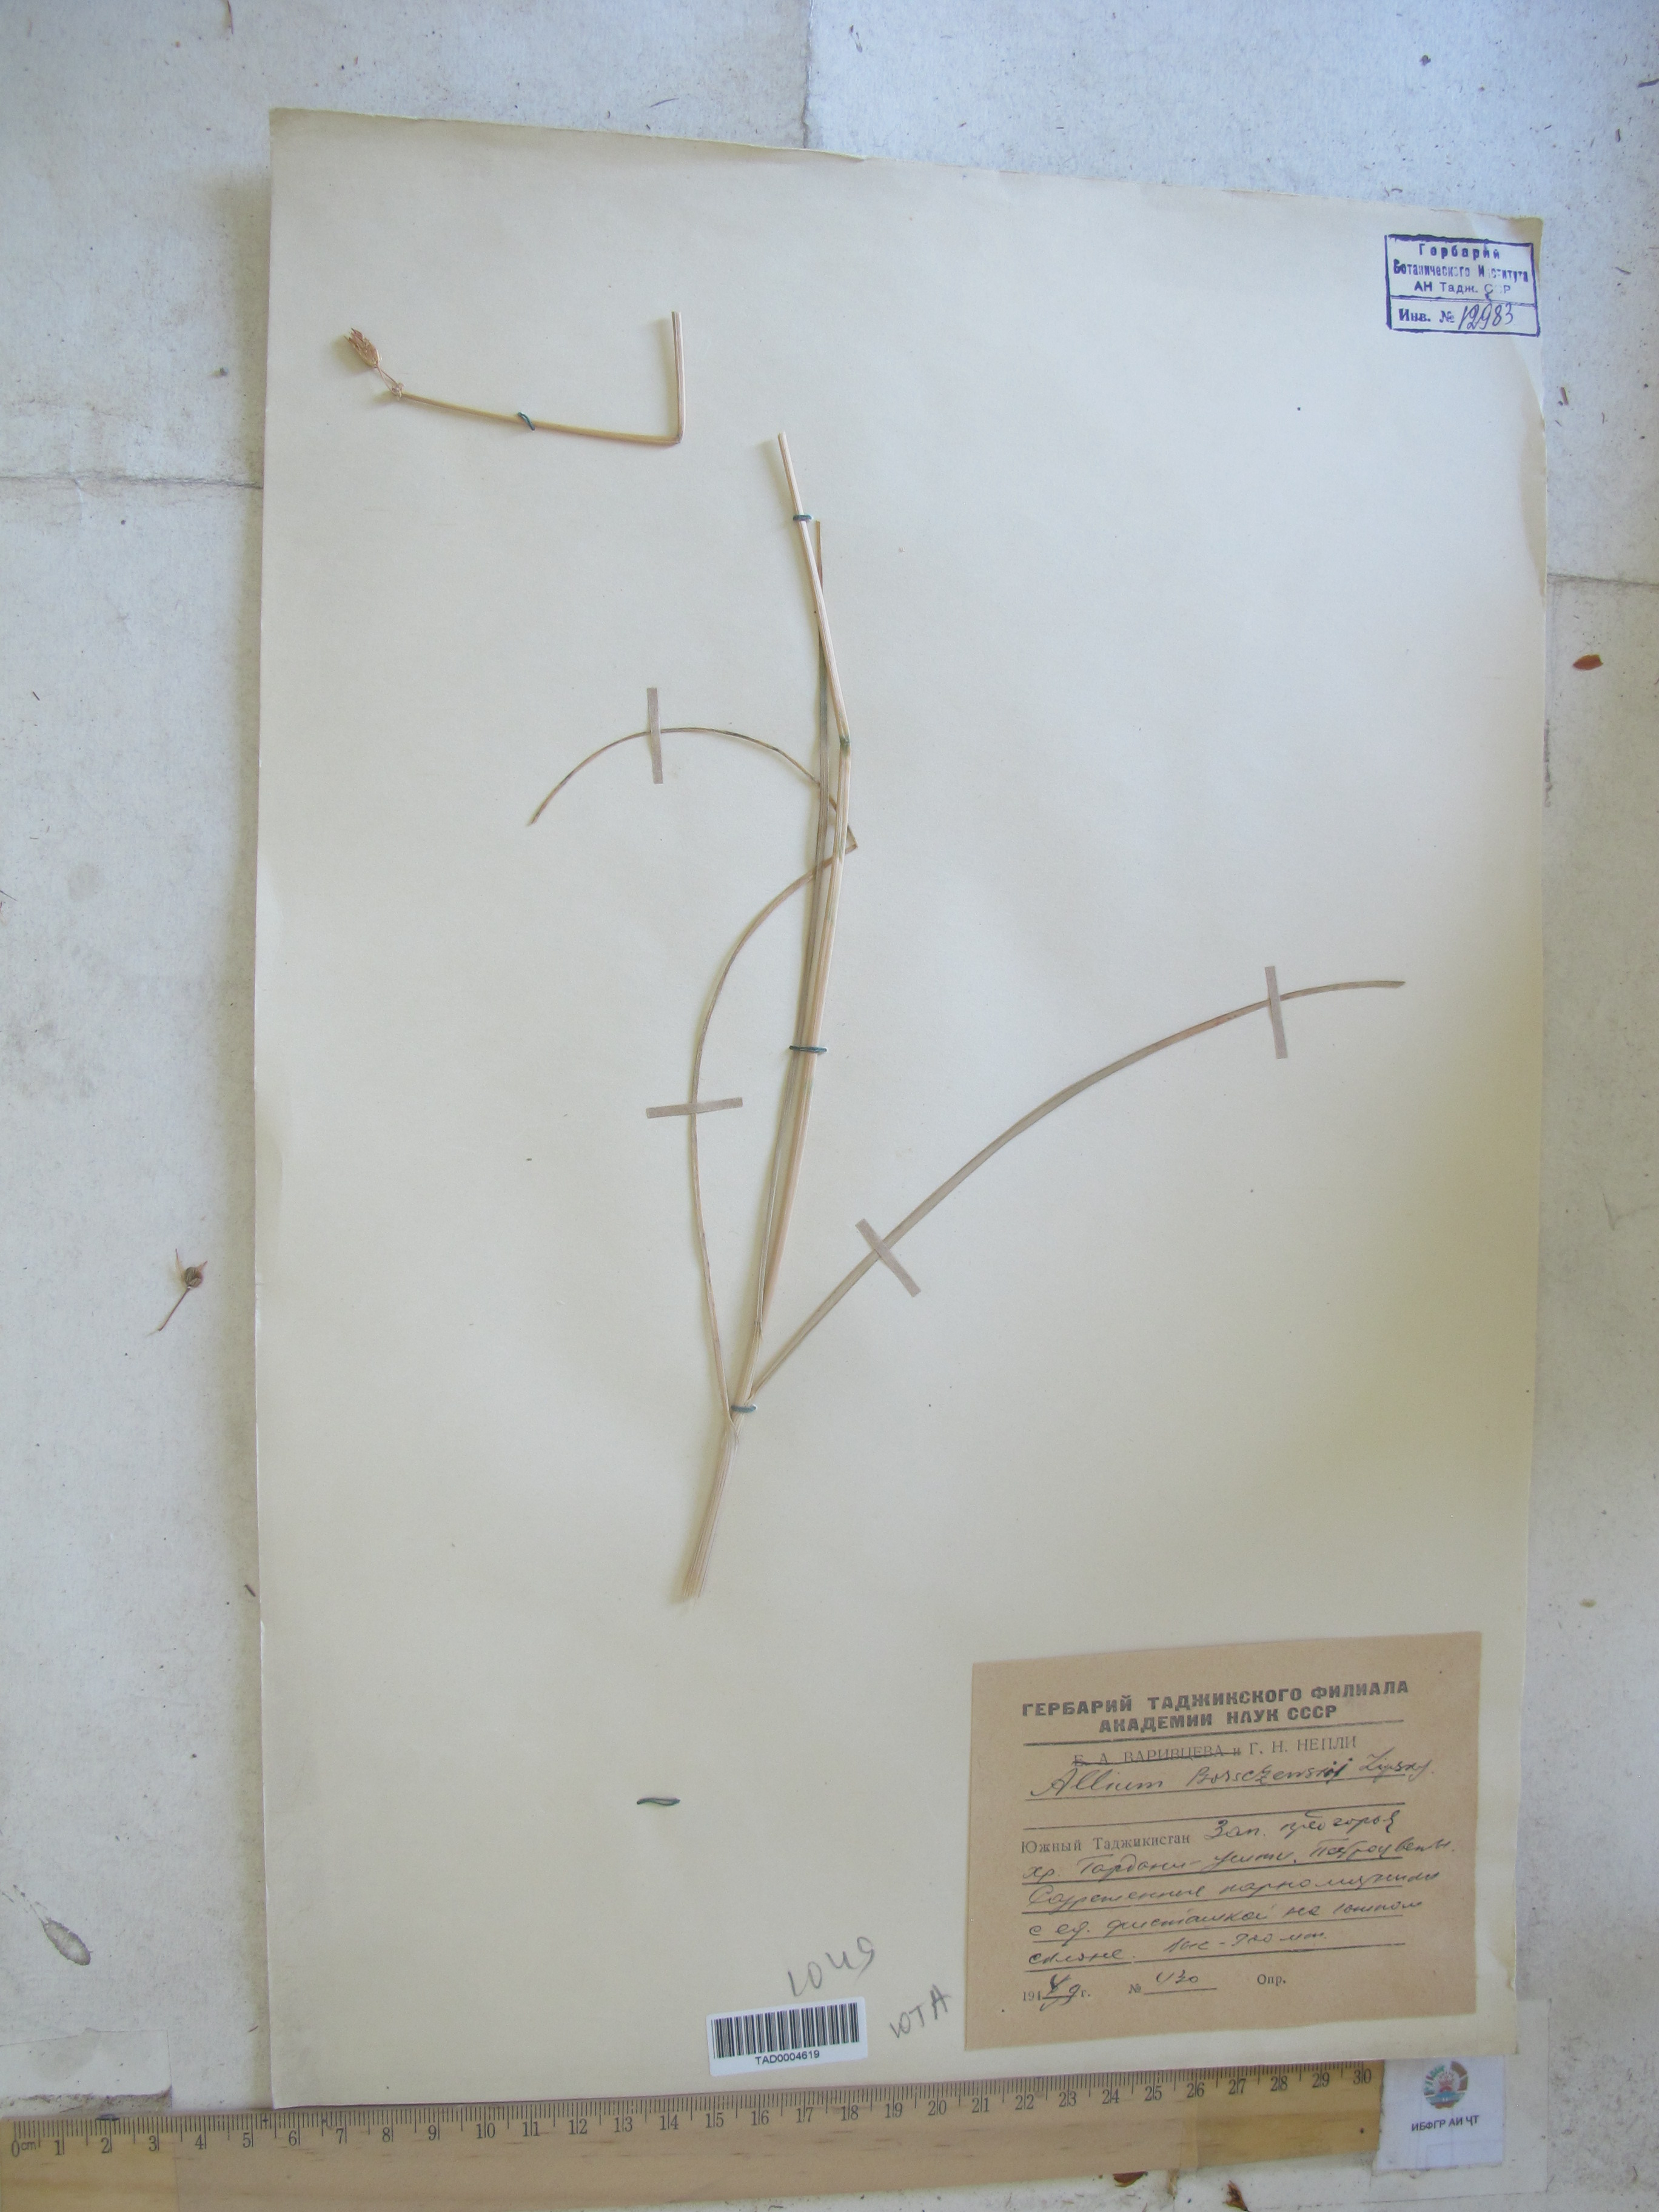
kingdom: Plantae
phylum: Tracheophyta
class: Liliopsida
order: Asparagales
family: Amaryllidaceae
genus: Allium
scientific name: Allium barsczewskii
